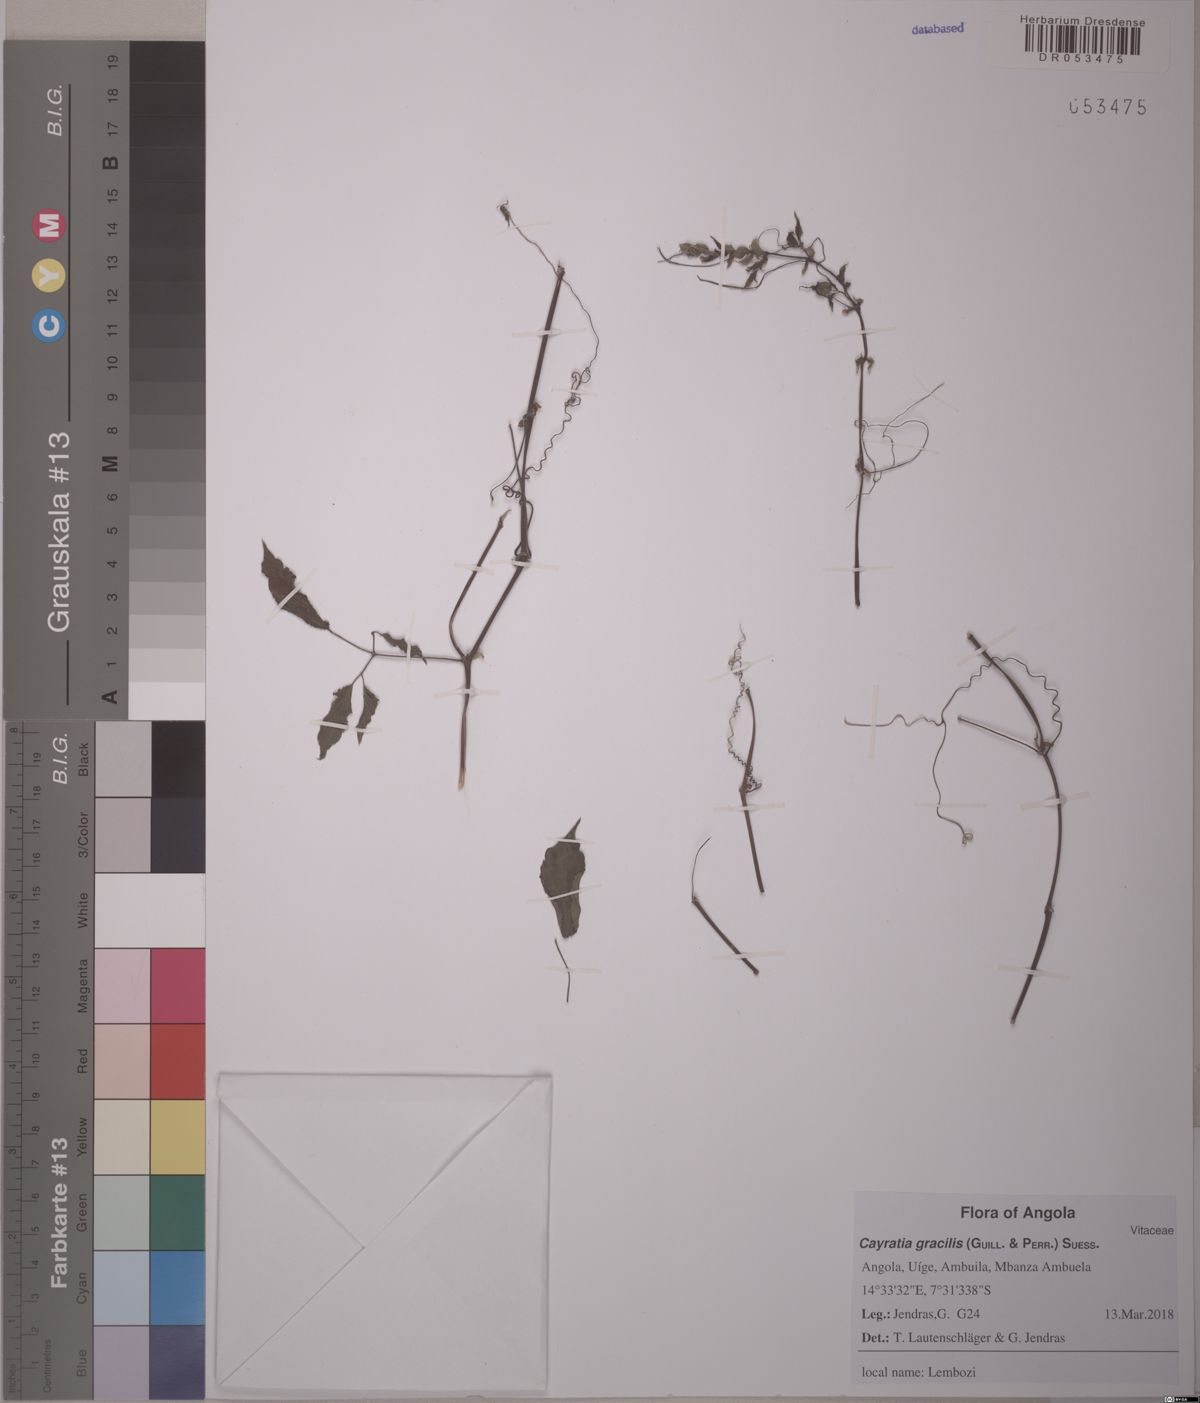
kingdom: Plantae
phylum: Tracheophyta
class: Magnoliopsida
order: Vitales
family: Vitaceae
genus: Afrocayratia
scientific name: Afrocayratia gracilis
